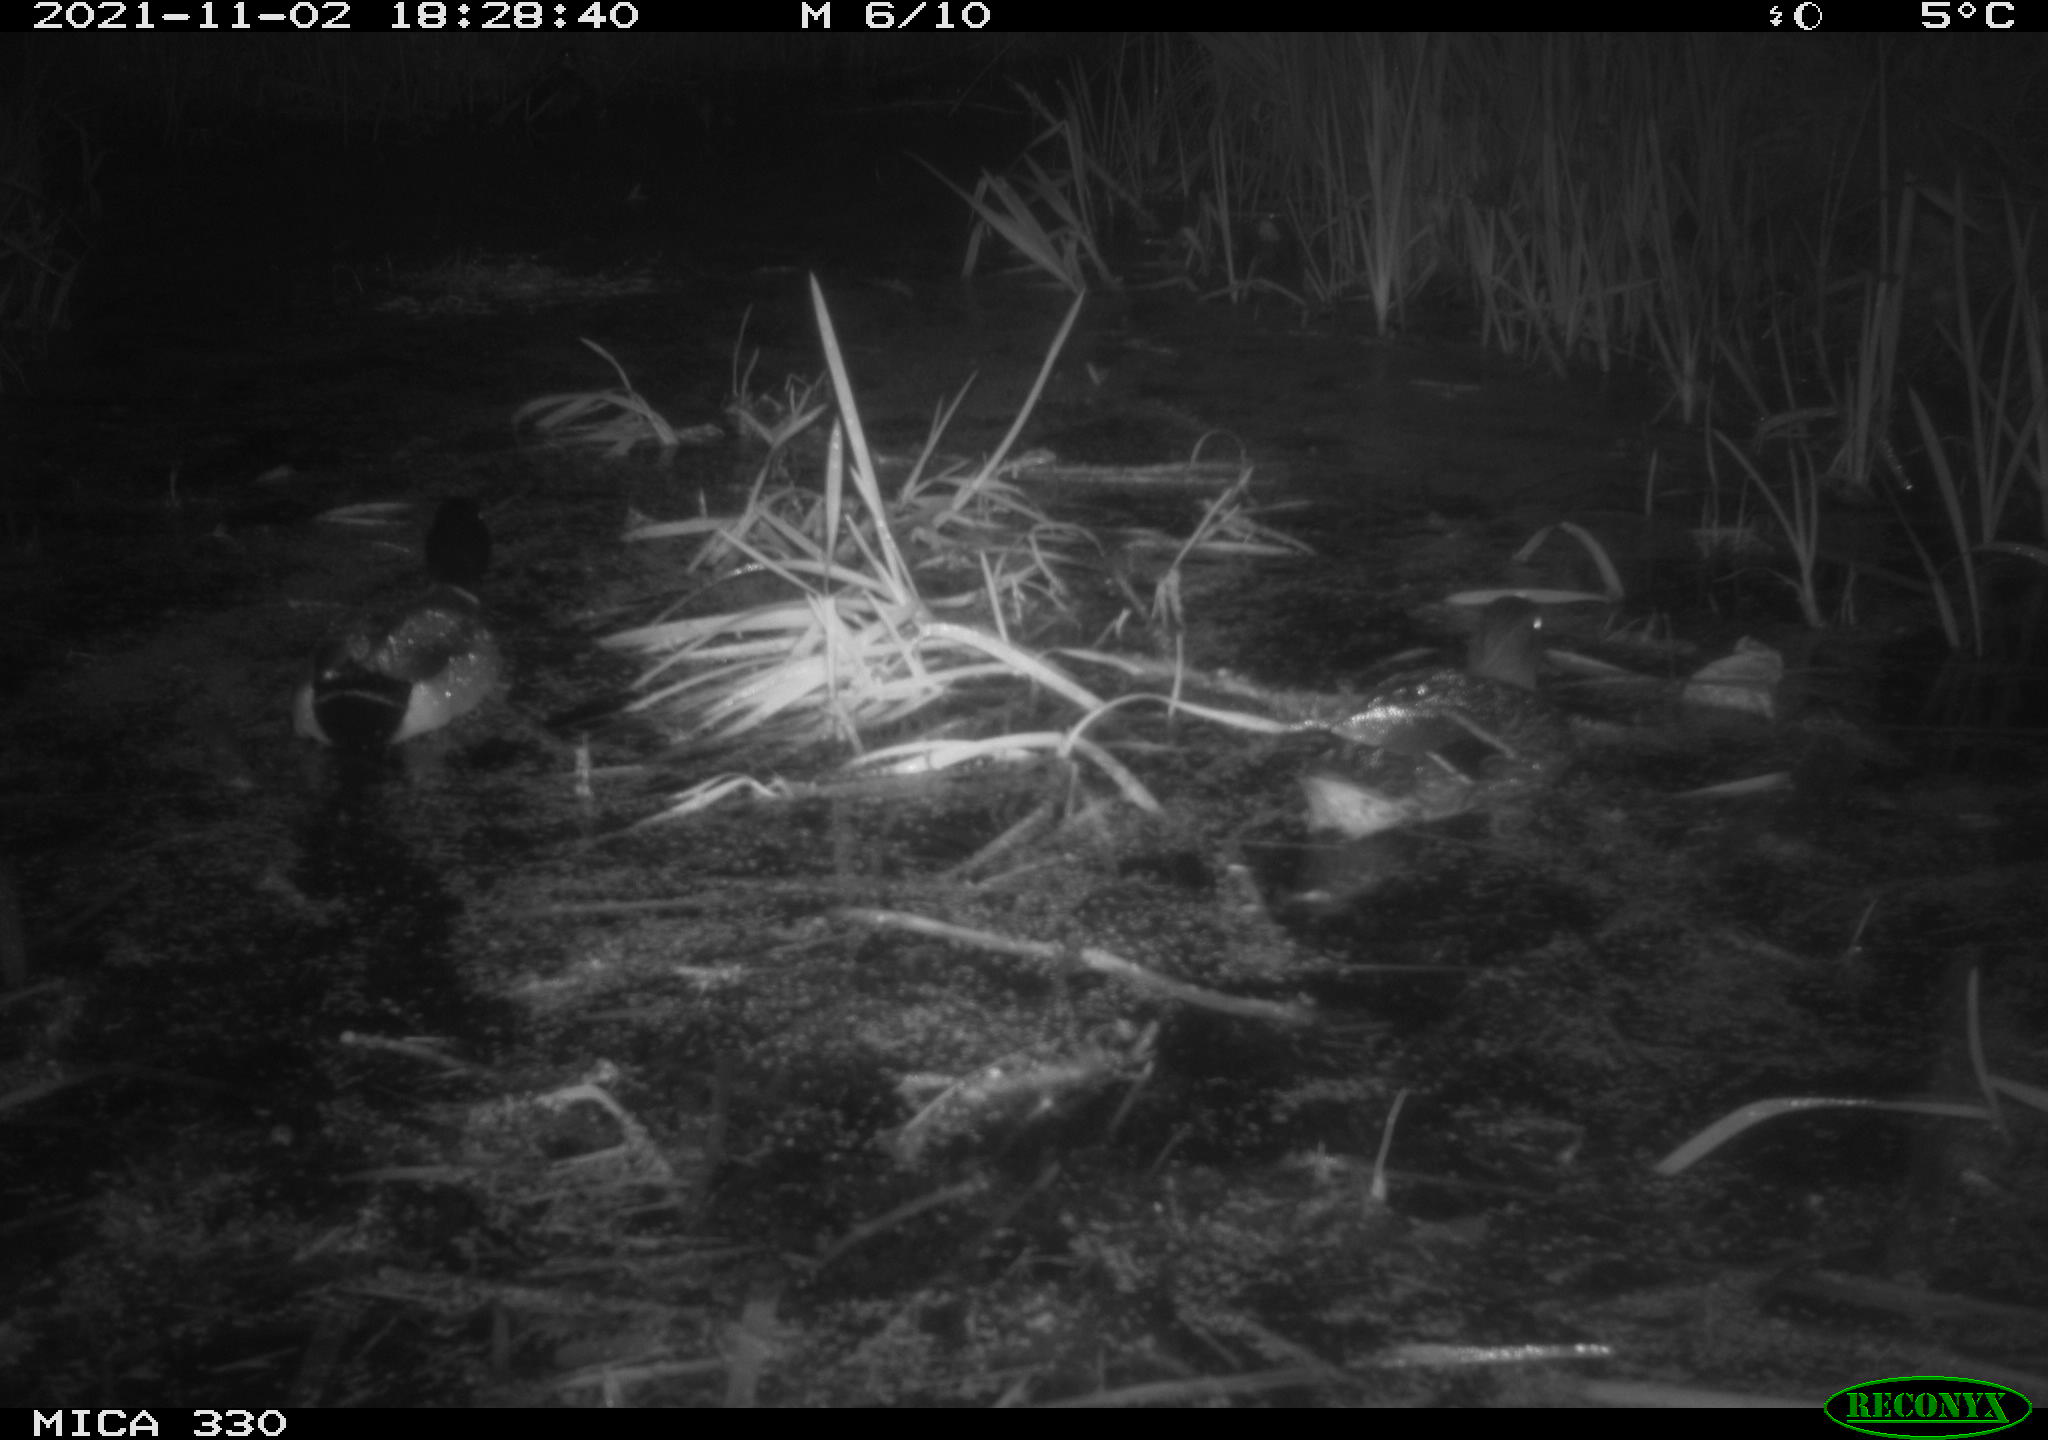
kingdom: Animalia
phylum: Chordata
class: Aves
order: Anseriformes
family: Anatidae
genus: Anas
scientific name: Anas platyrhynchos
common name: Mallard
